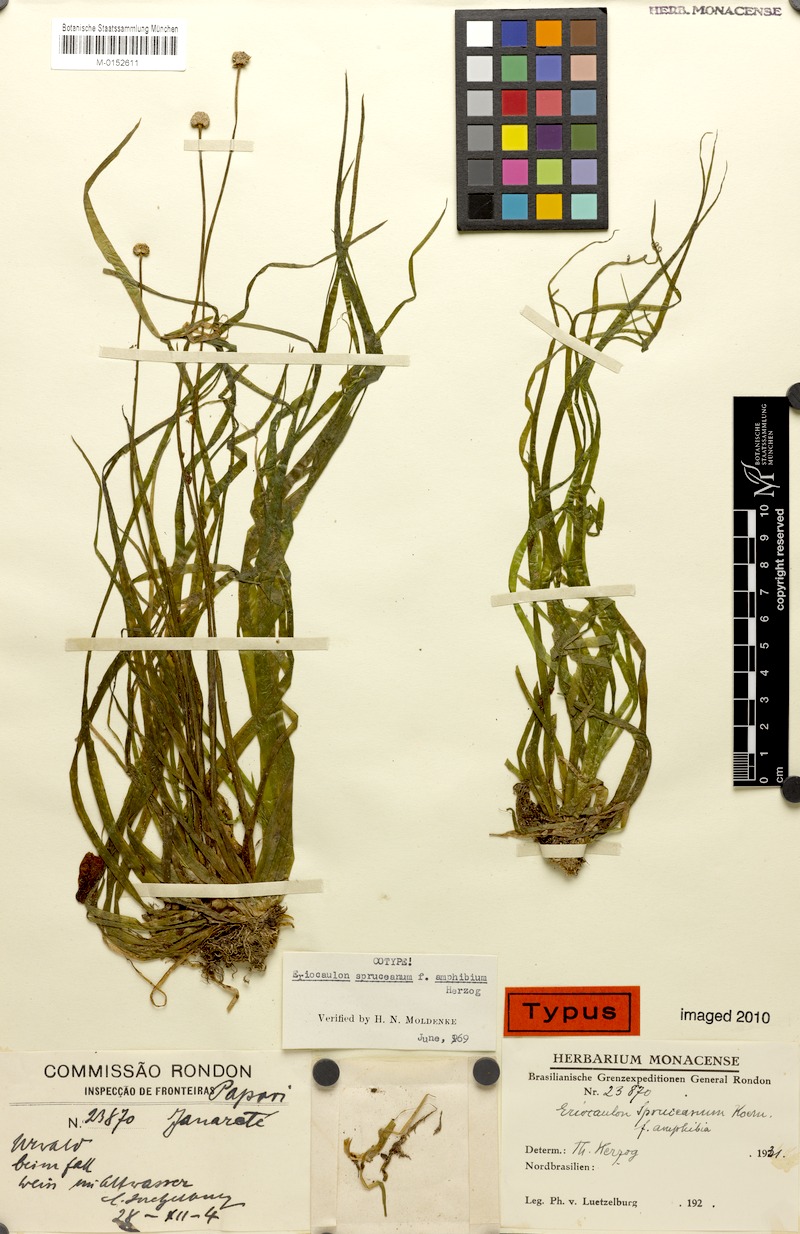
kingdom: Plantae
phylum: Tracheophyta
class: Liliopsida
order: Poales
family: Eriocaulaceae
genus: Eriocaulon
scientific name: Eriocaulon spruceanum
